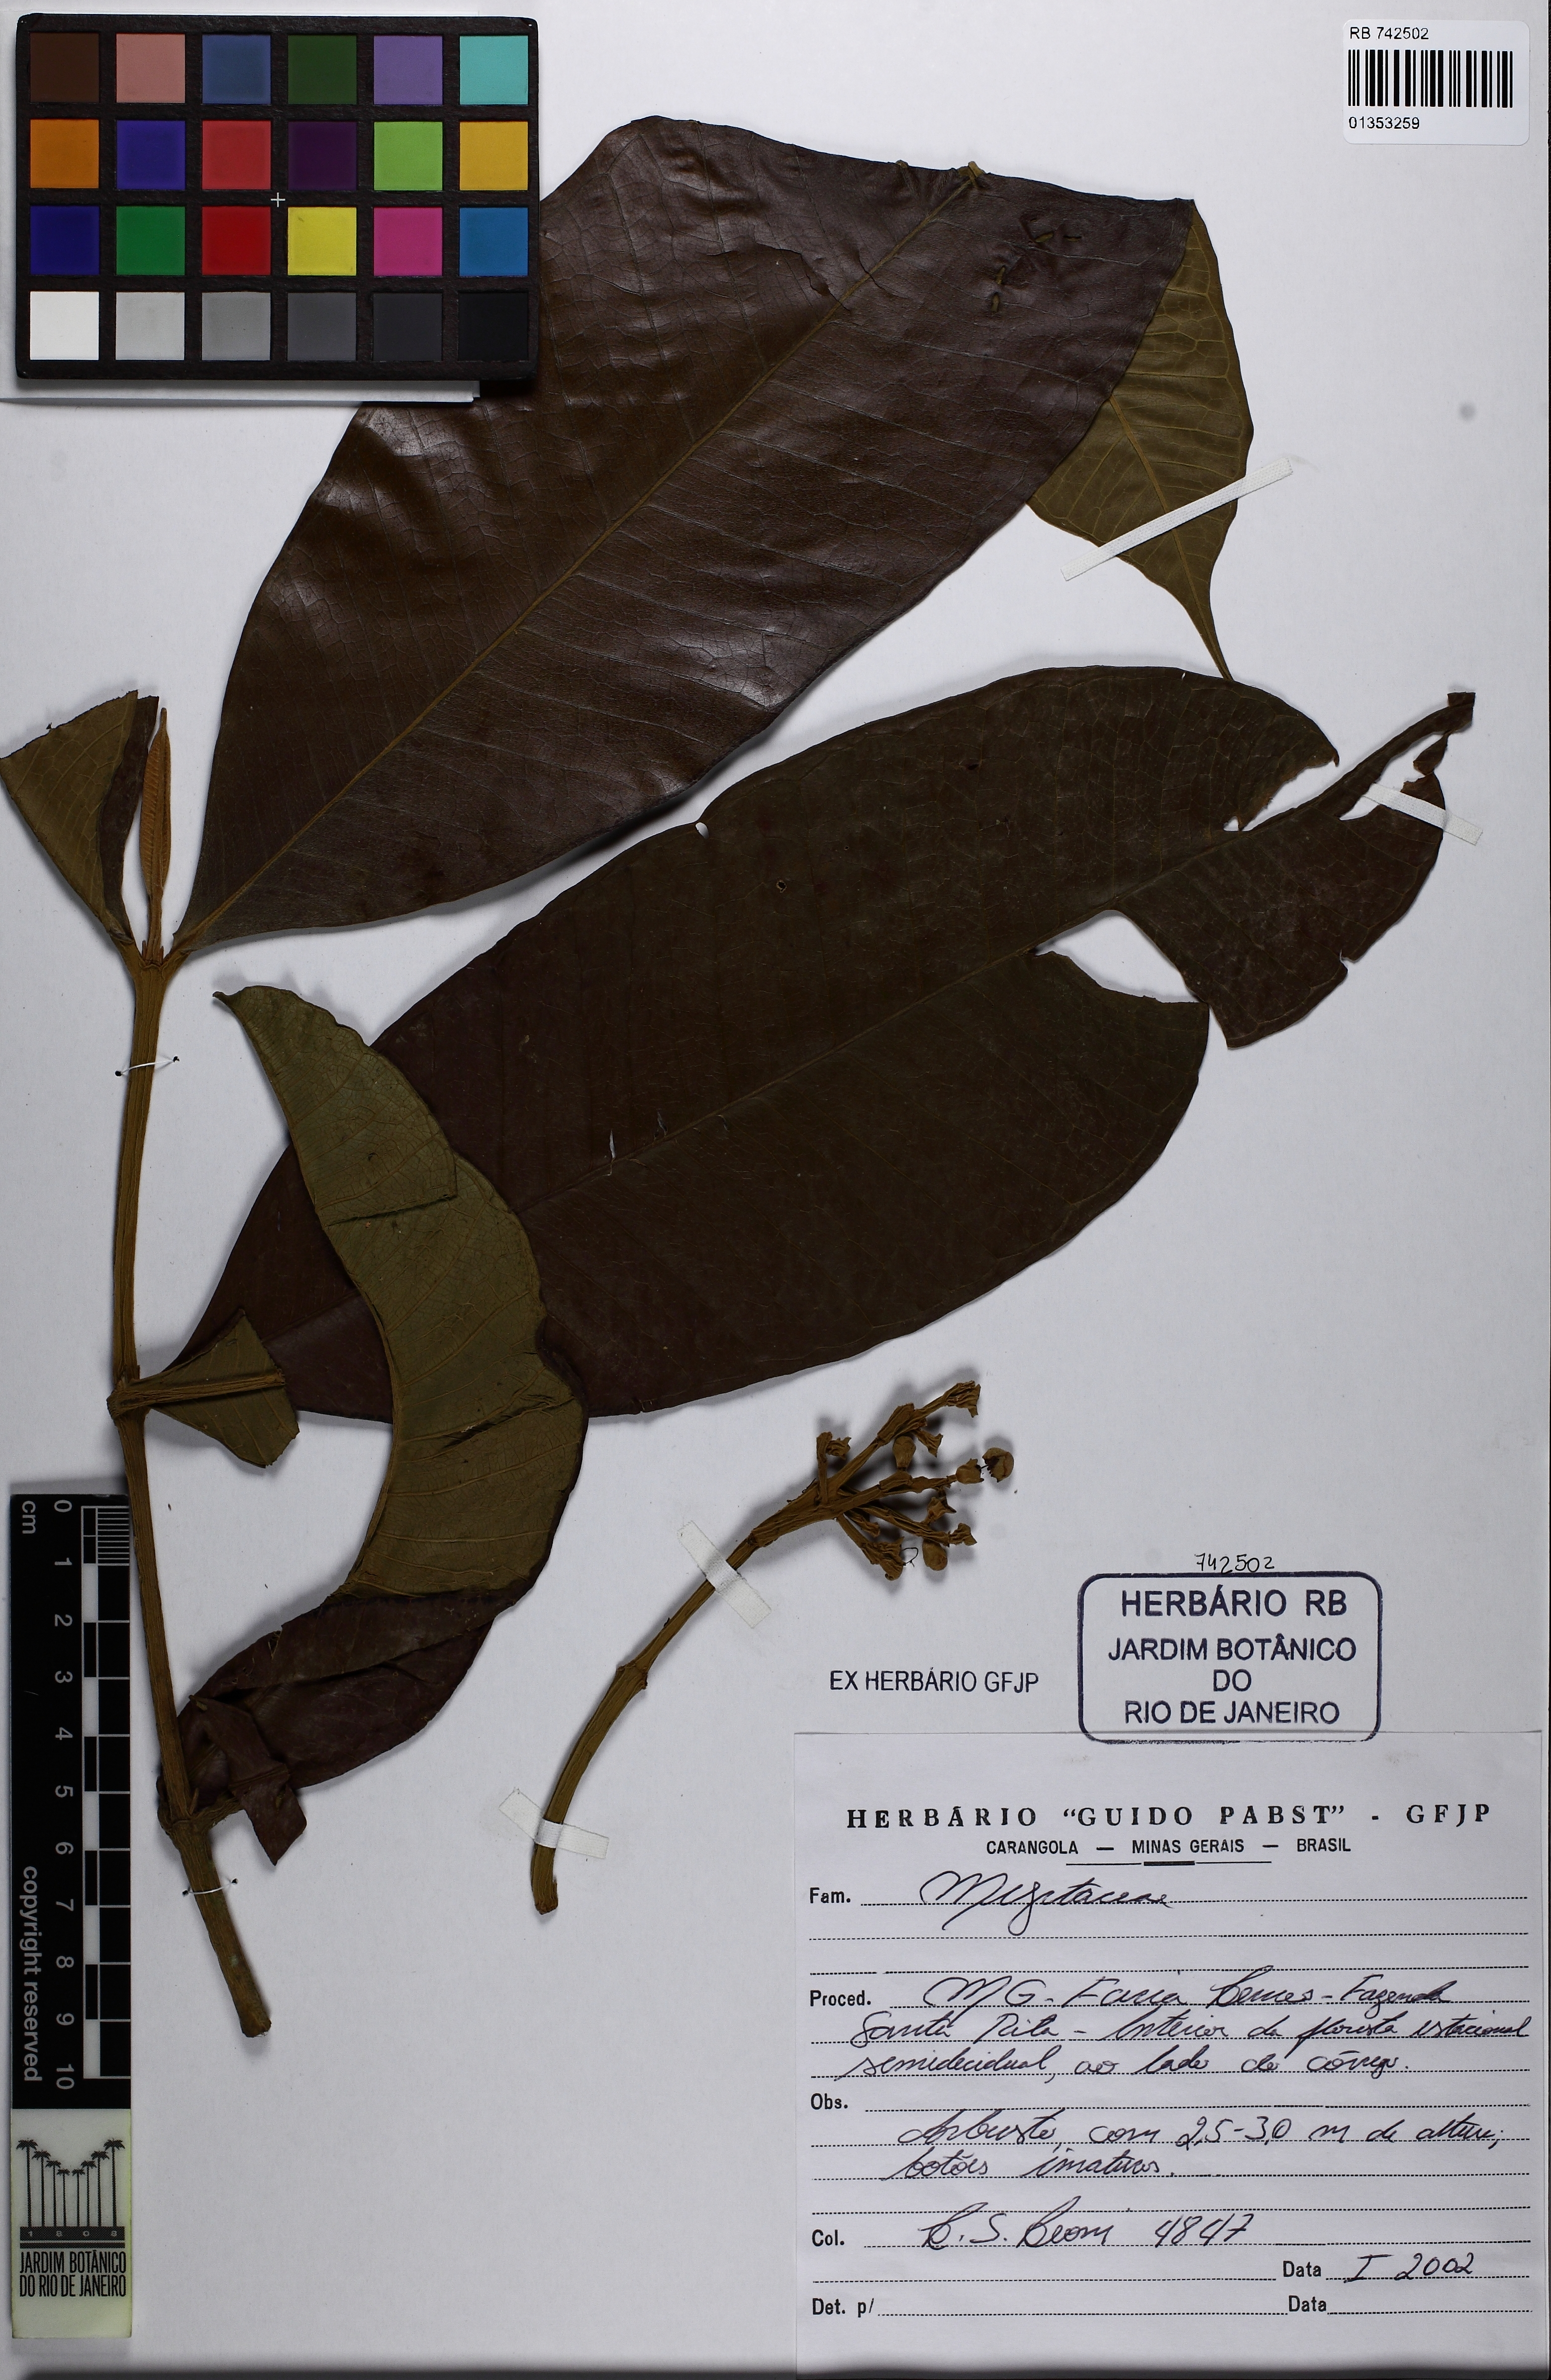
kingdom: Plantae
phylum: Tracheophyta
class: Magnoliopsida
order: Myrtales
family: Myrtaceae
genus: Myrcia
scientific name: Myrcia spectabilis
